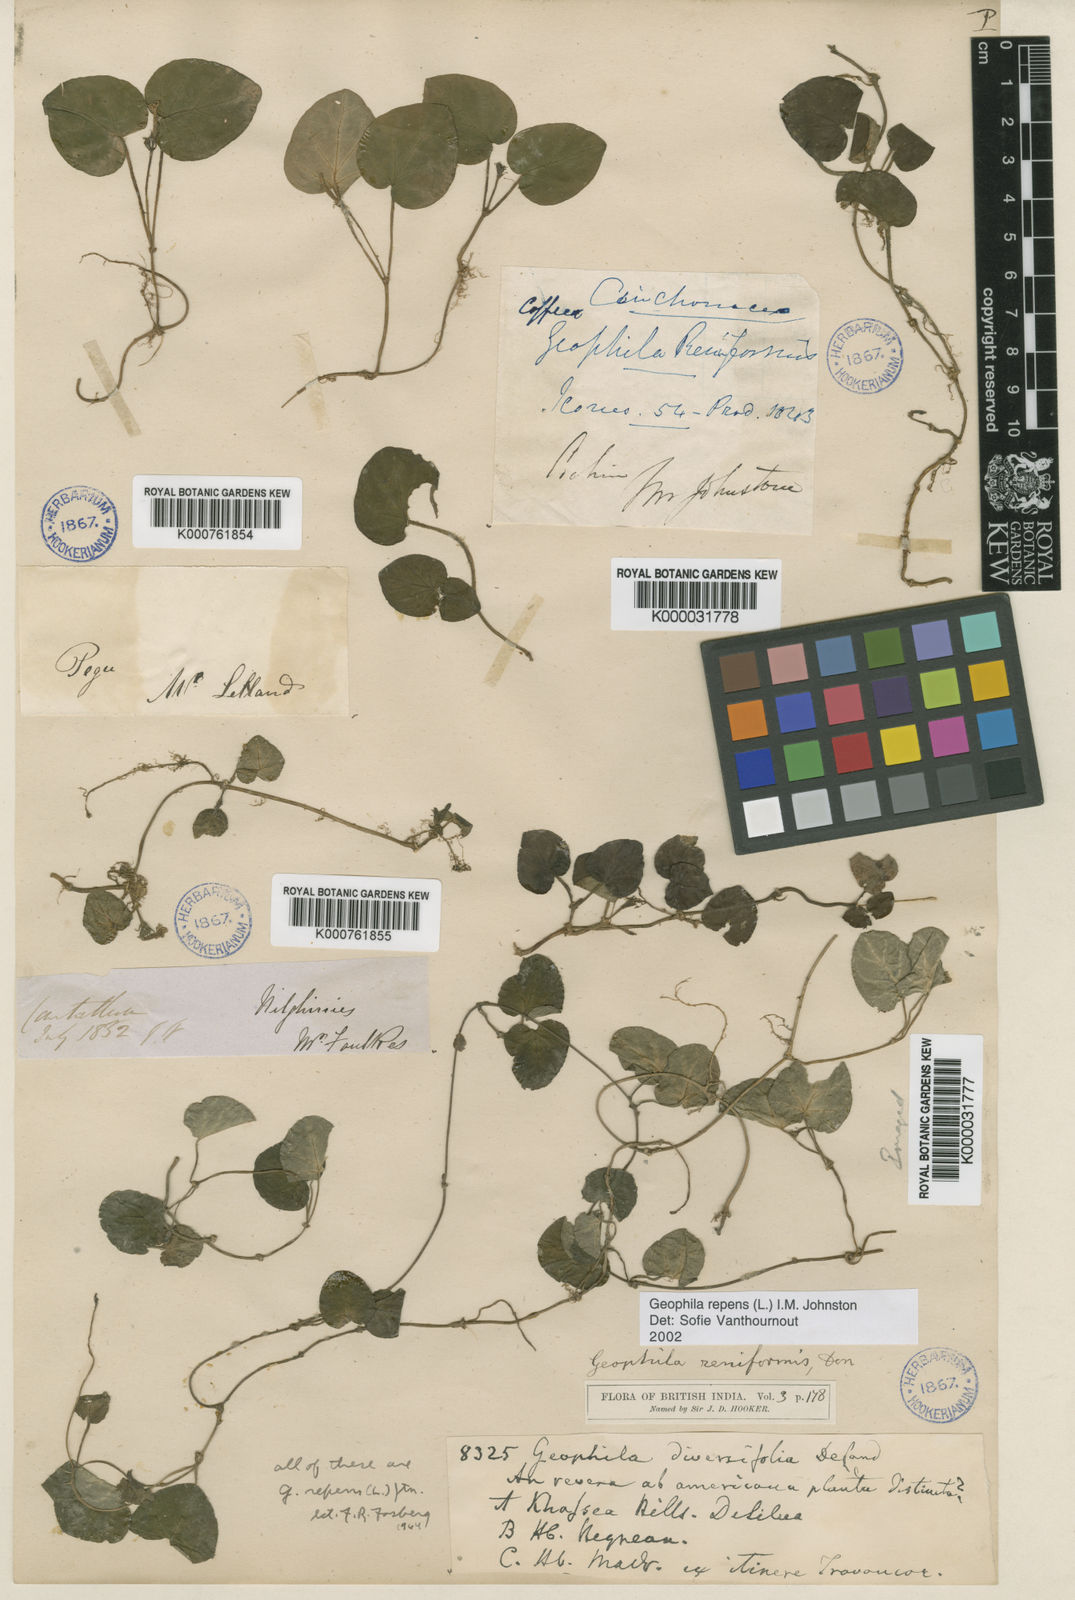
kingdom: Plantae
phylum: Tracheophyta
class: Magnoliopsida
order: Gentianales
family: Rubiaceae
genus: Geophila
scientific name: Geophila repens
